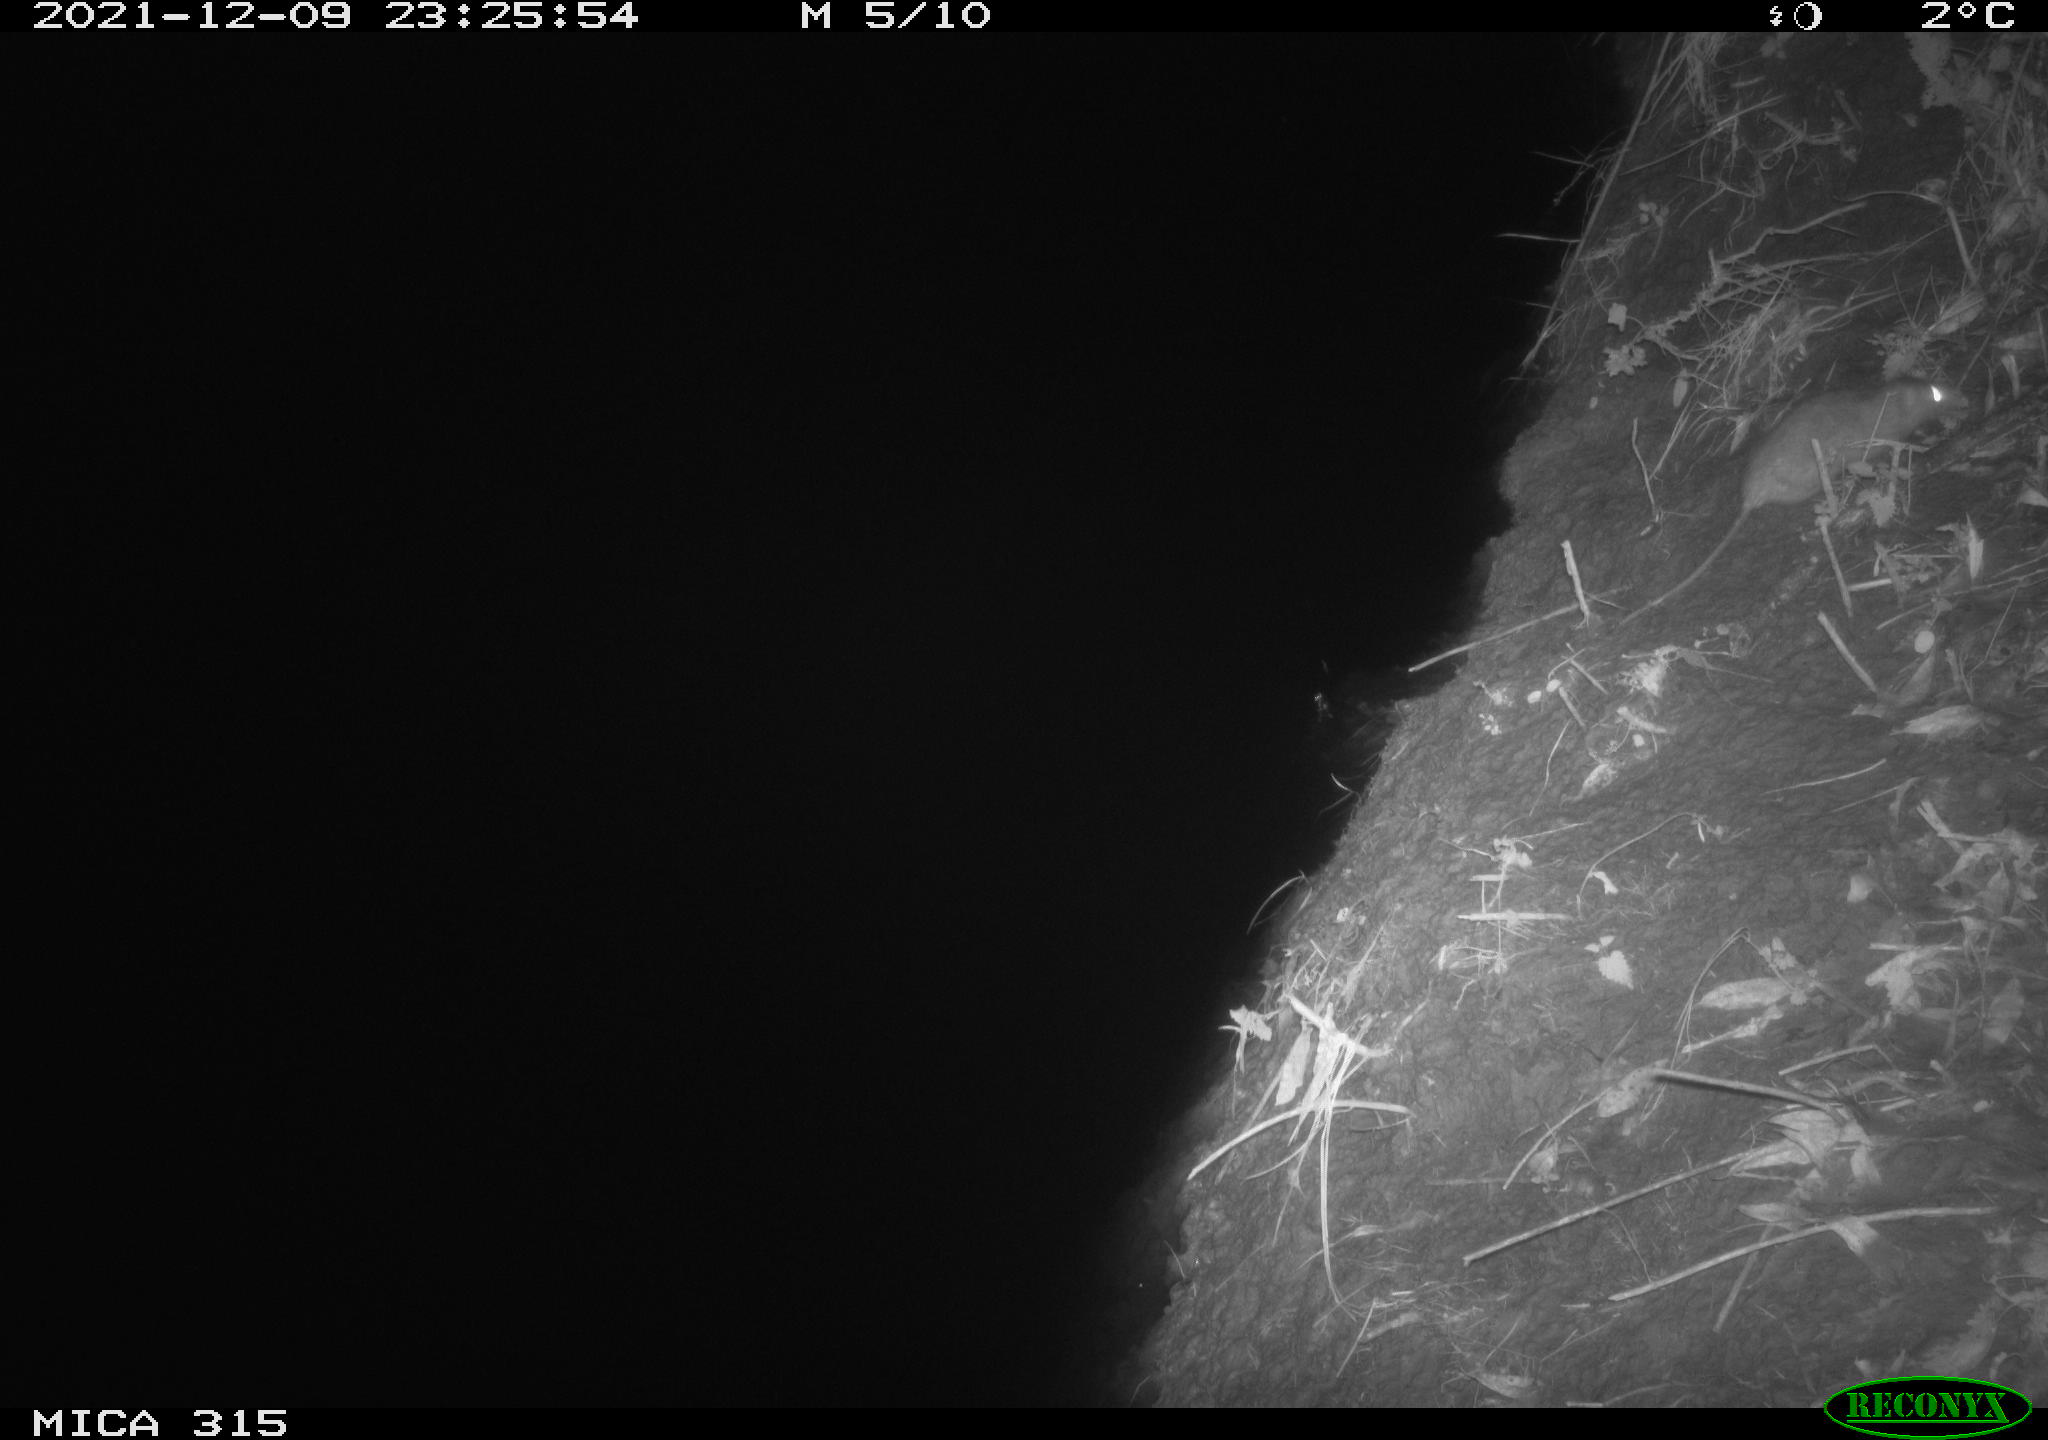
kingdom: Animalia
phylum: Chordata
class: Mammalia
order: Rodentia
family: Muridae
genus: Rattus
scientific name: Rattus norvegicus
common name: Brown rat
